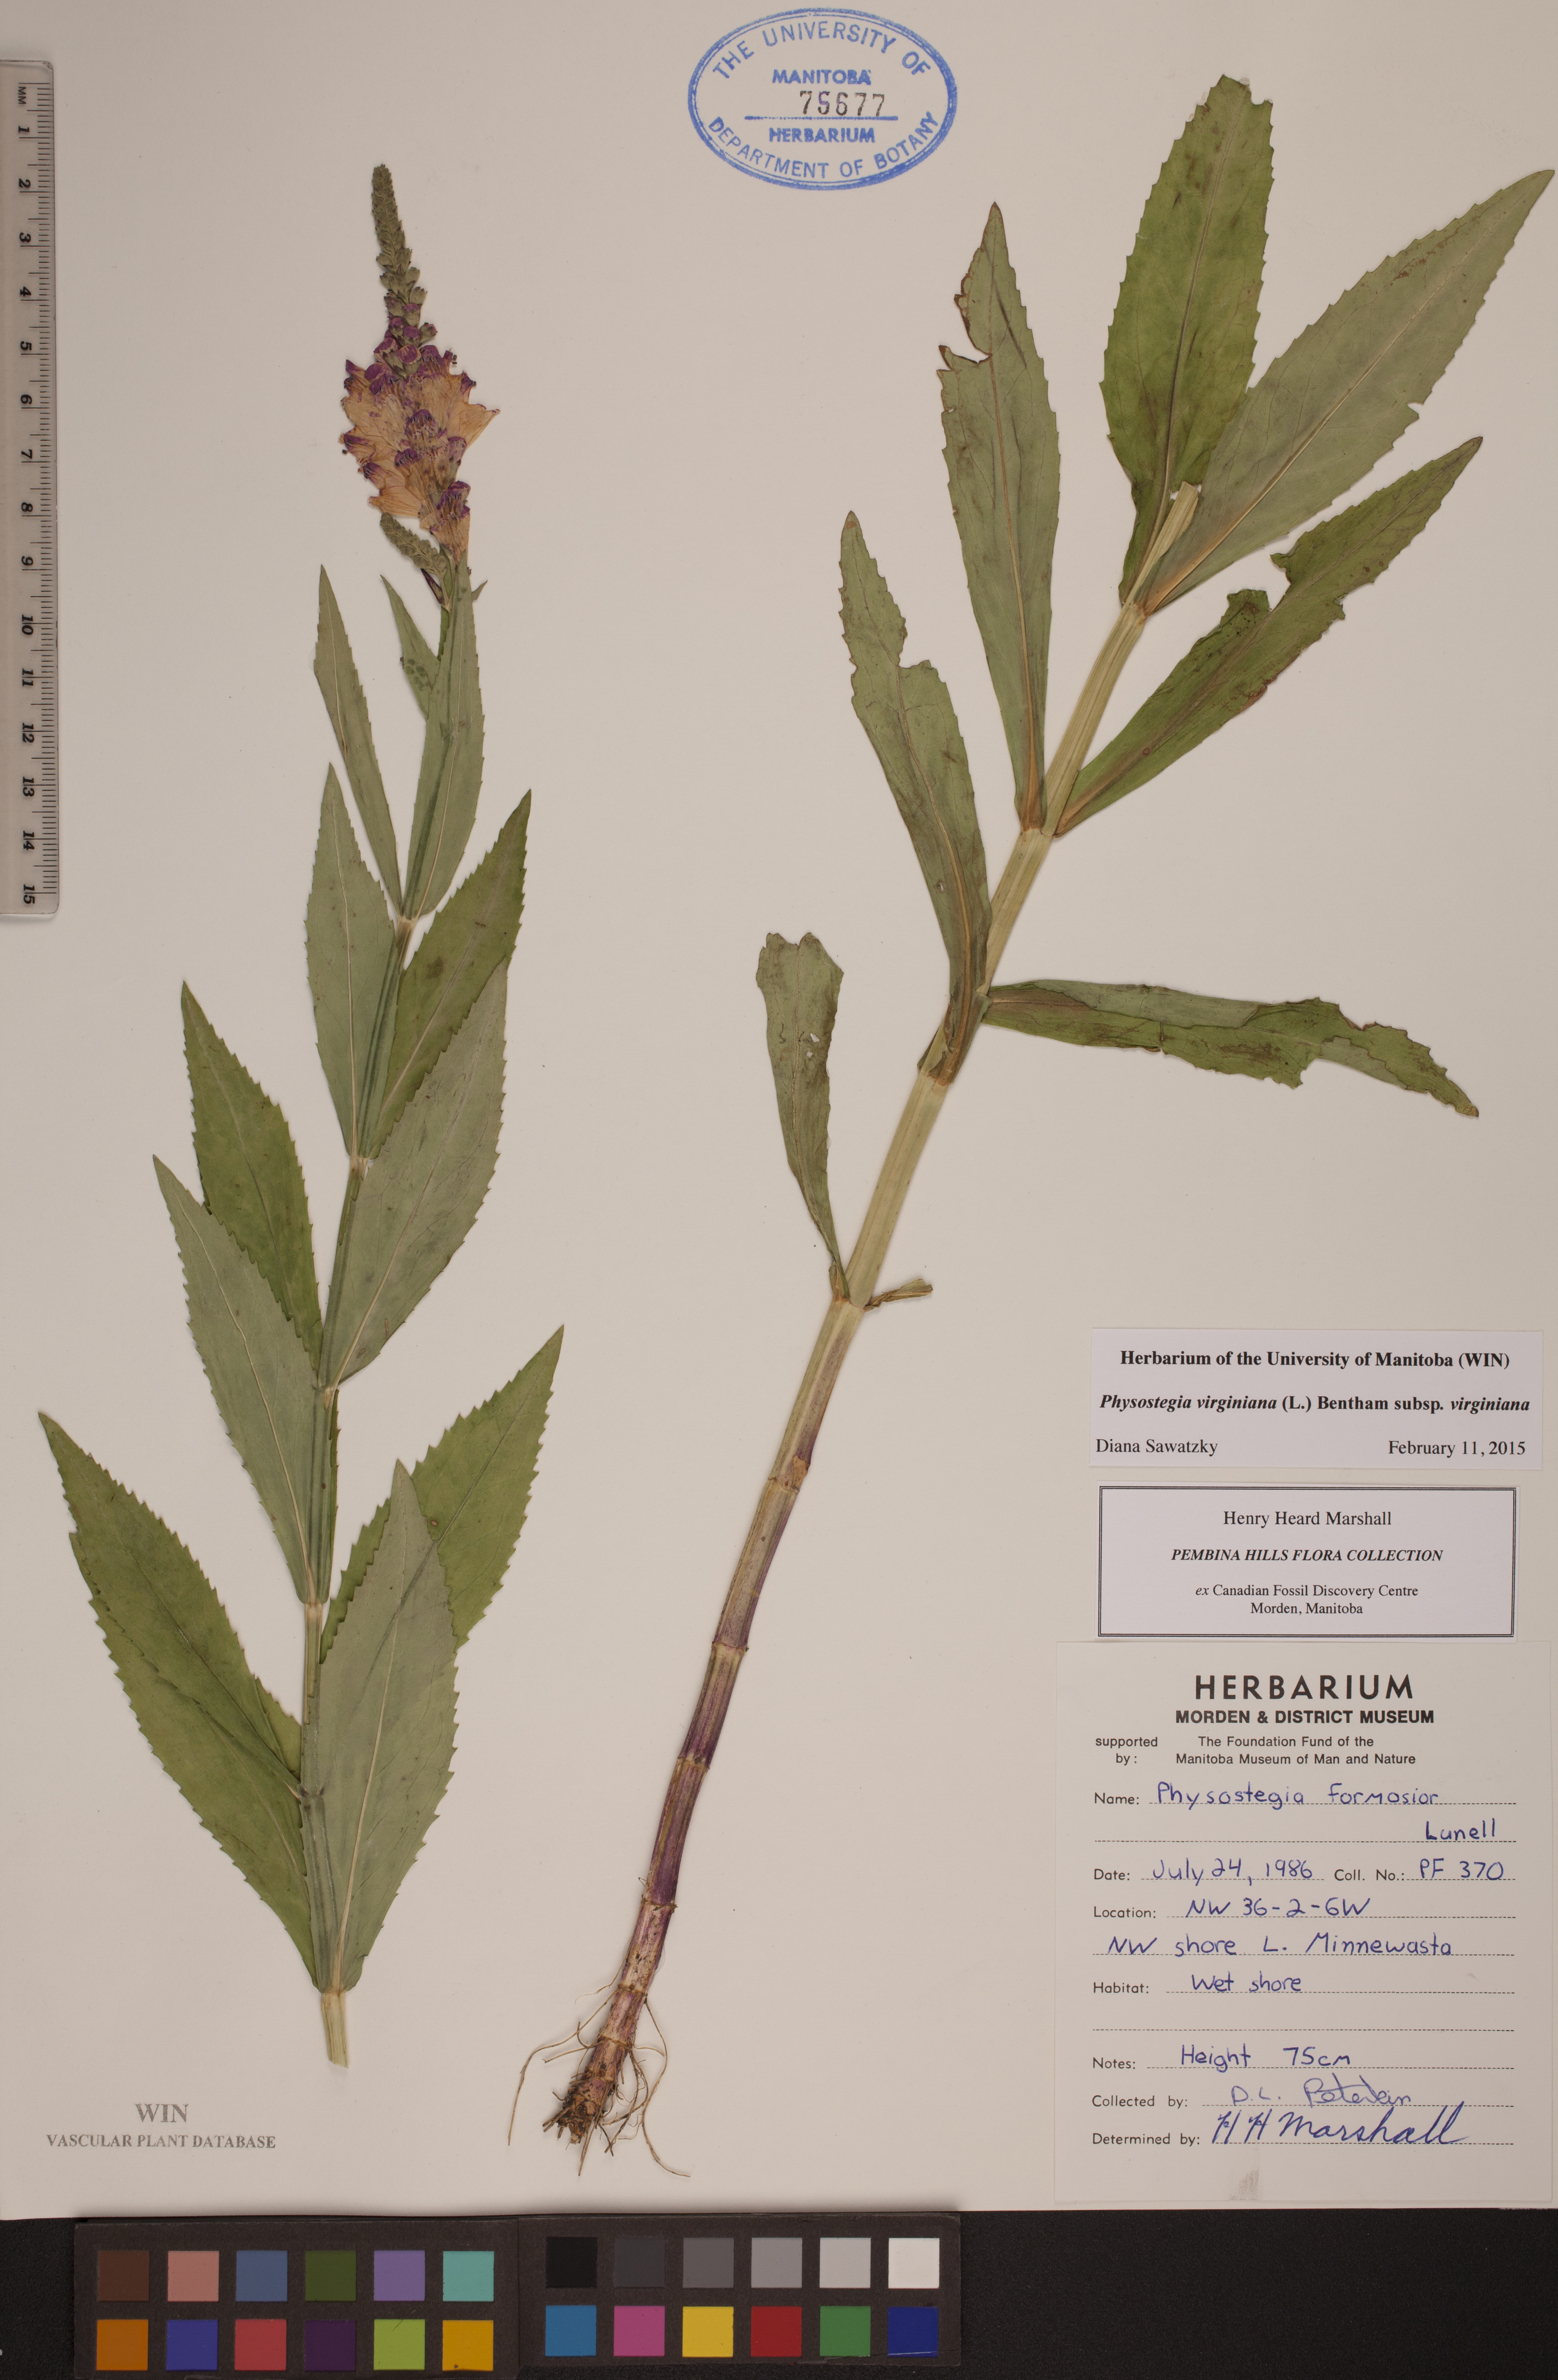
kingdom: Plantae
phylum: Tracheophyta
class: Magnoliopsida
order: Lamiales
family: Lamiaceae
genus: Physostegia
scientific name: Physostegia virginiana
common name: Obedient-plant
